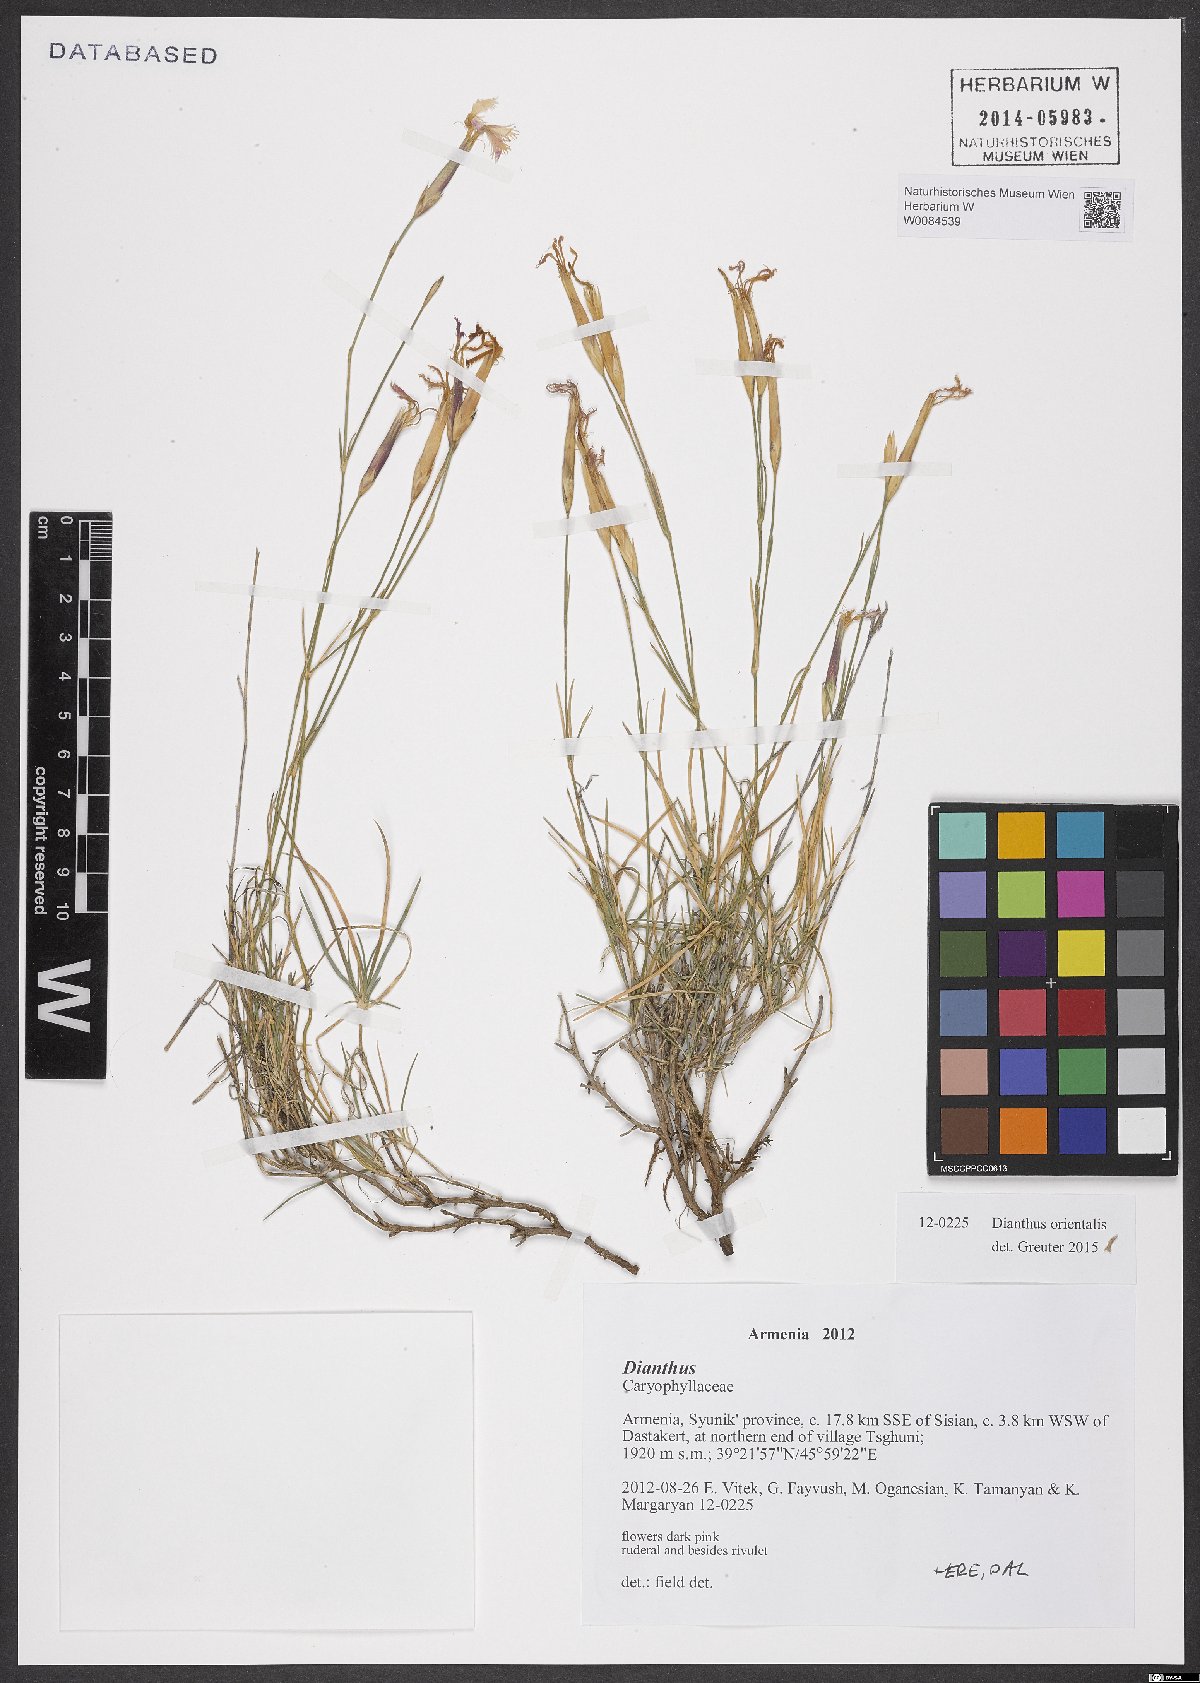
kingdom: Plantae
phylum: Tracheophyta
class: Magnoliopsida
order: Caryophyllales
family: Caryophyllaceae
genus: Dianthus
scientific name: Dianthus orientalis
